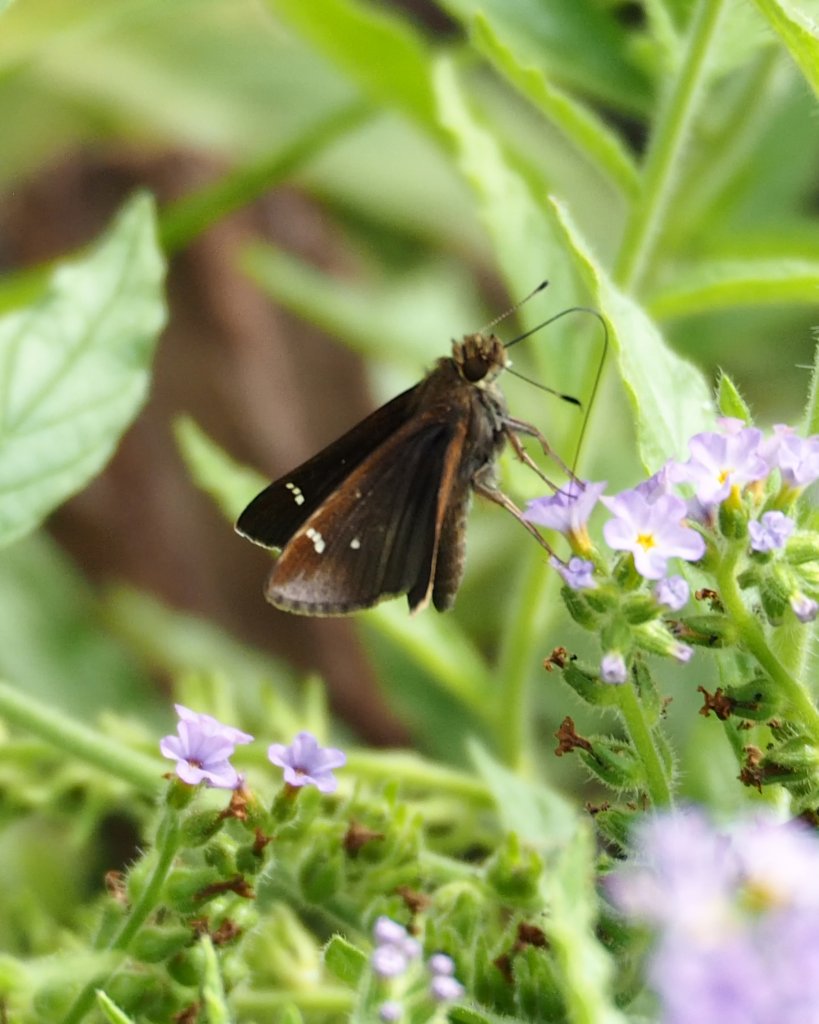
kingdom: Animalia
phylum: Arthropoda
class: Insecta
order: Lepidoptera
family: Hesperiidae
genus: Lerema
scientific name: Lerema accius
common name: Clouded Skipper
